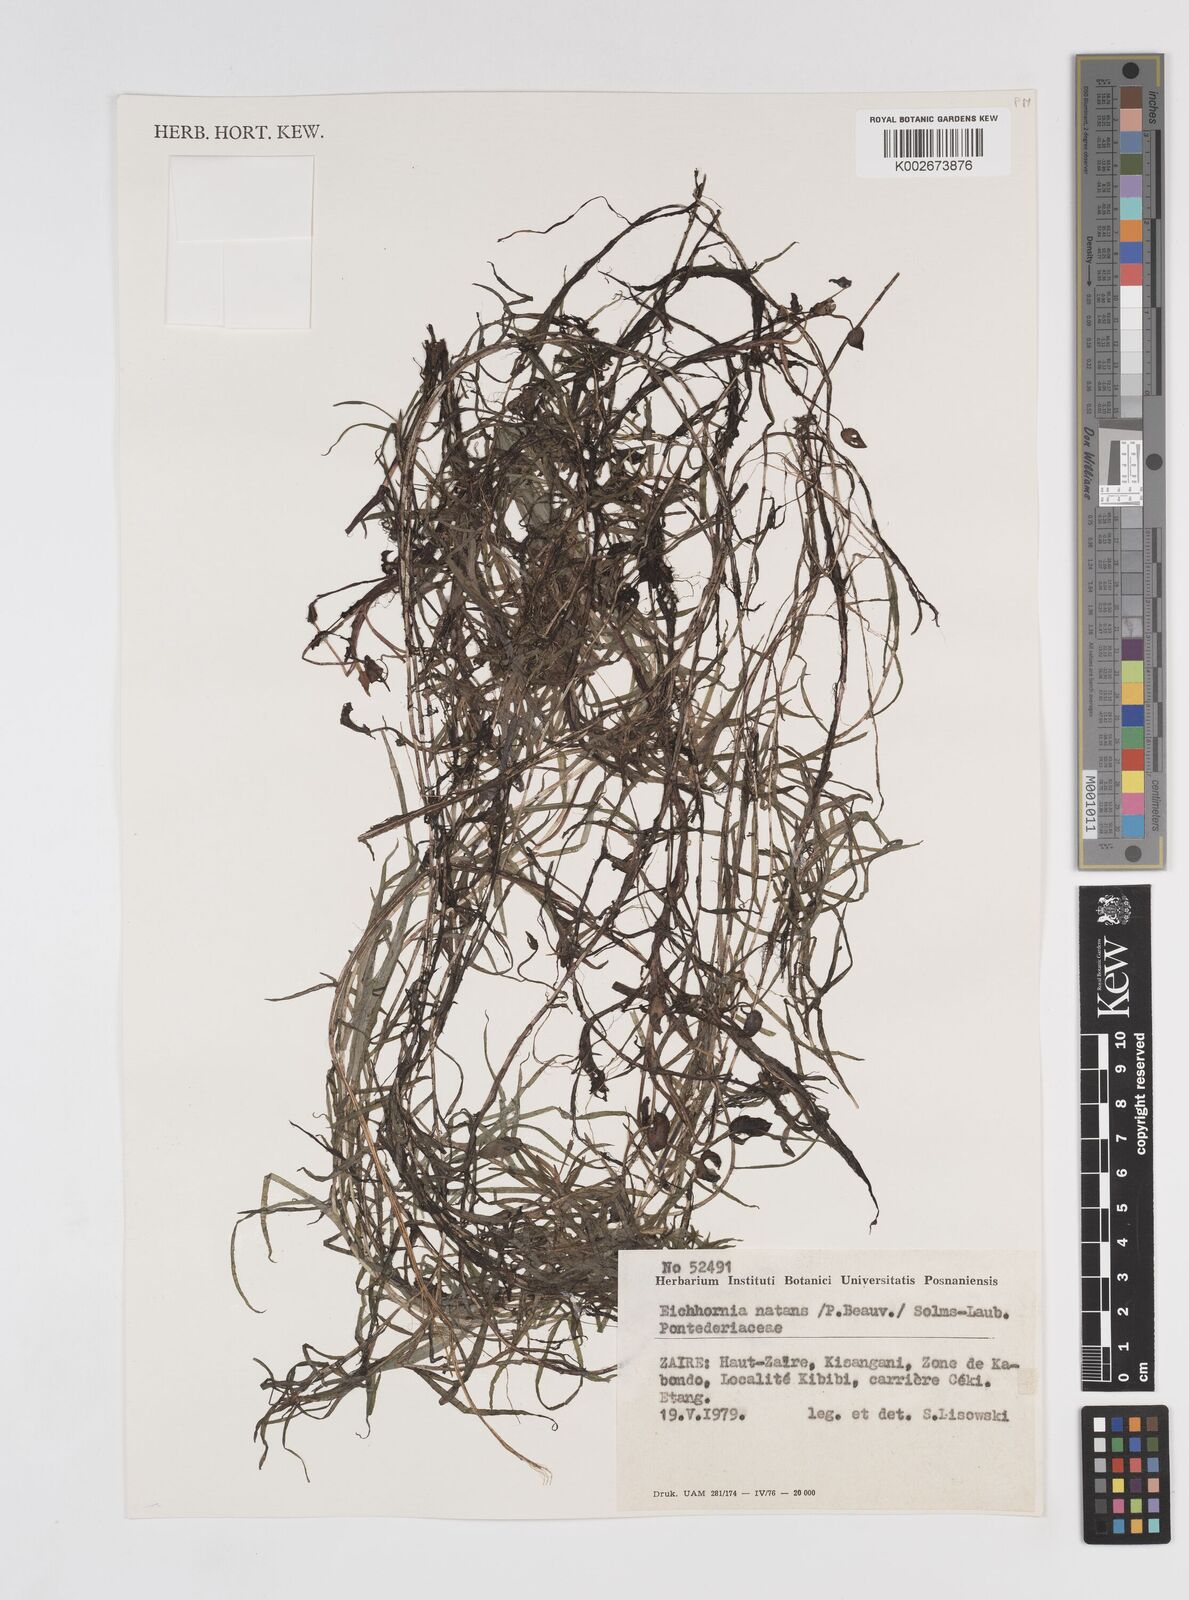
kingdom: Plantae
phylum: Tracheophyta
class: Liliopsida
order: Commelinales
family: Pontederiaceae
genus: Pontederia
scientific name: Pontederia natans
